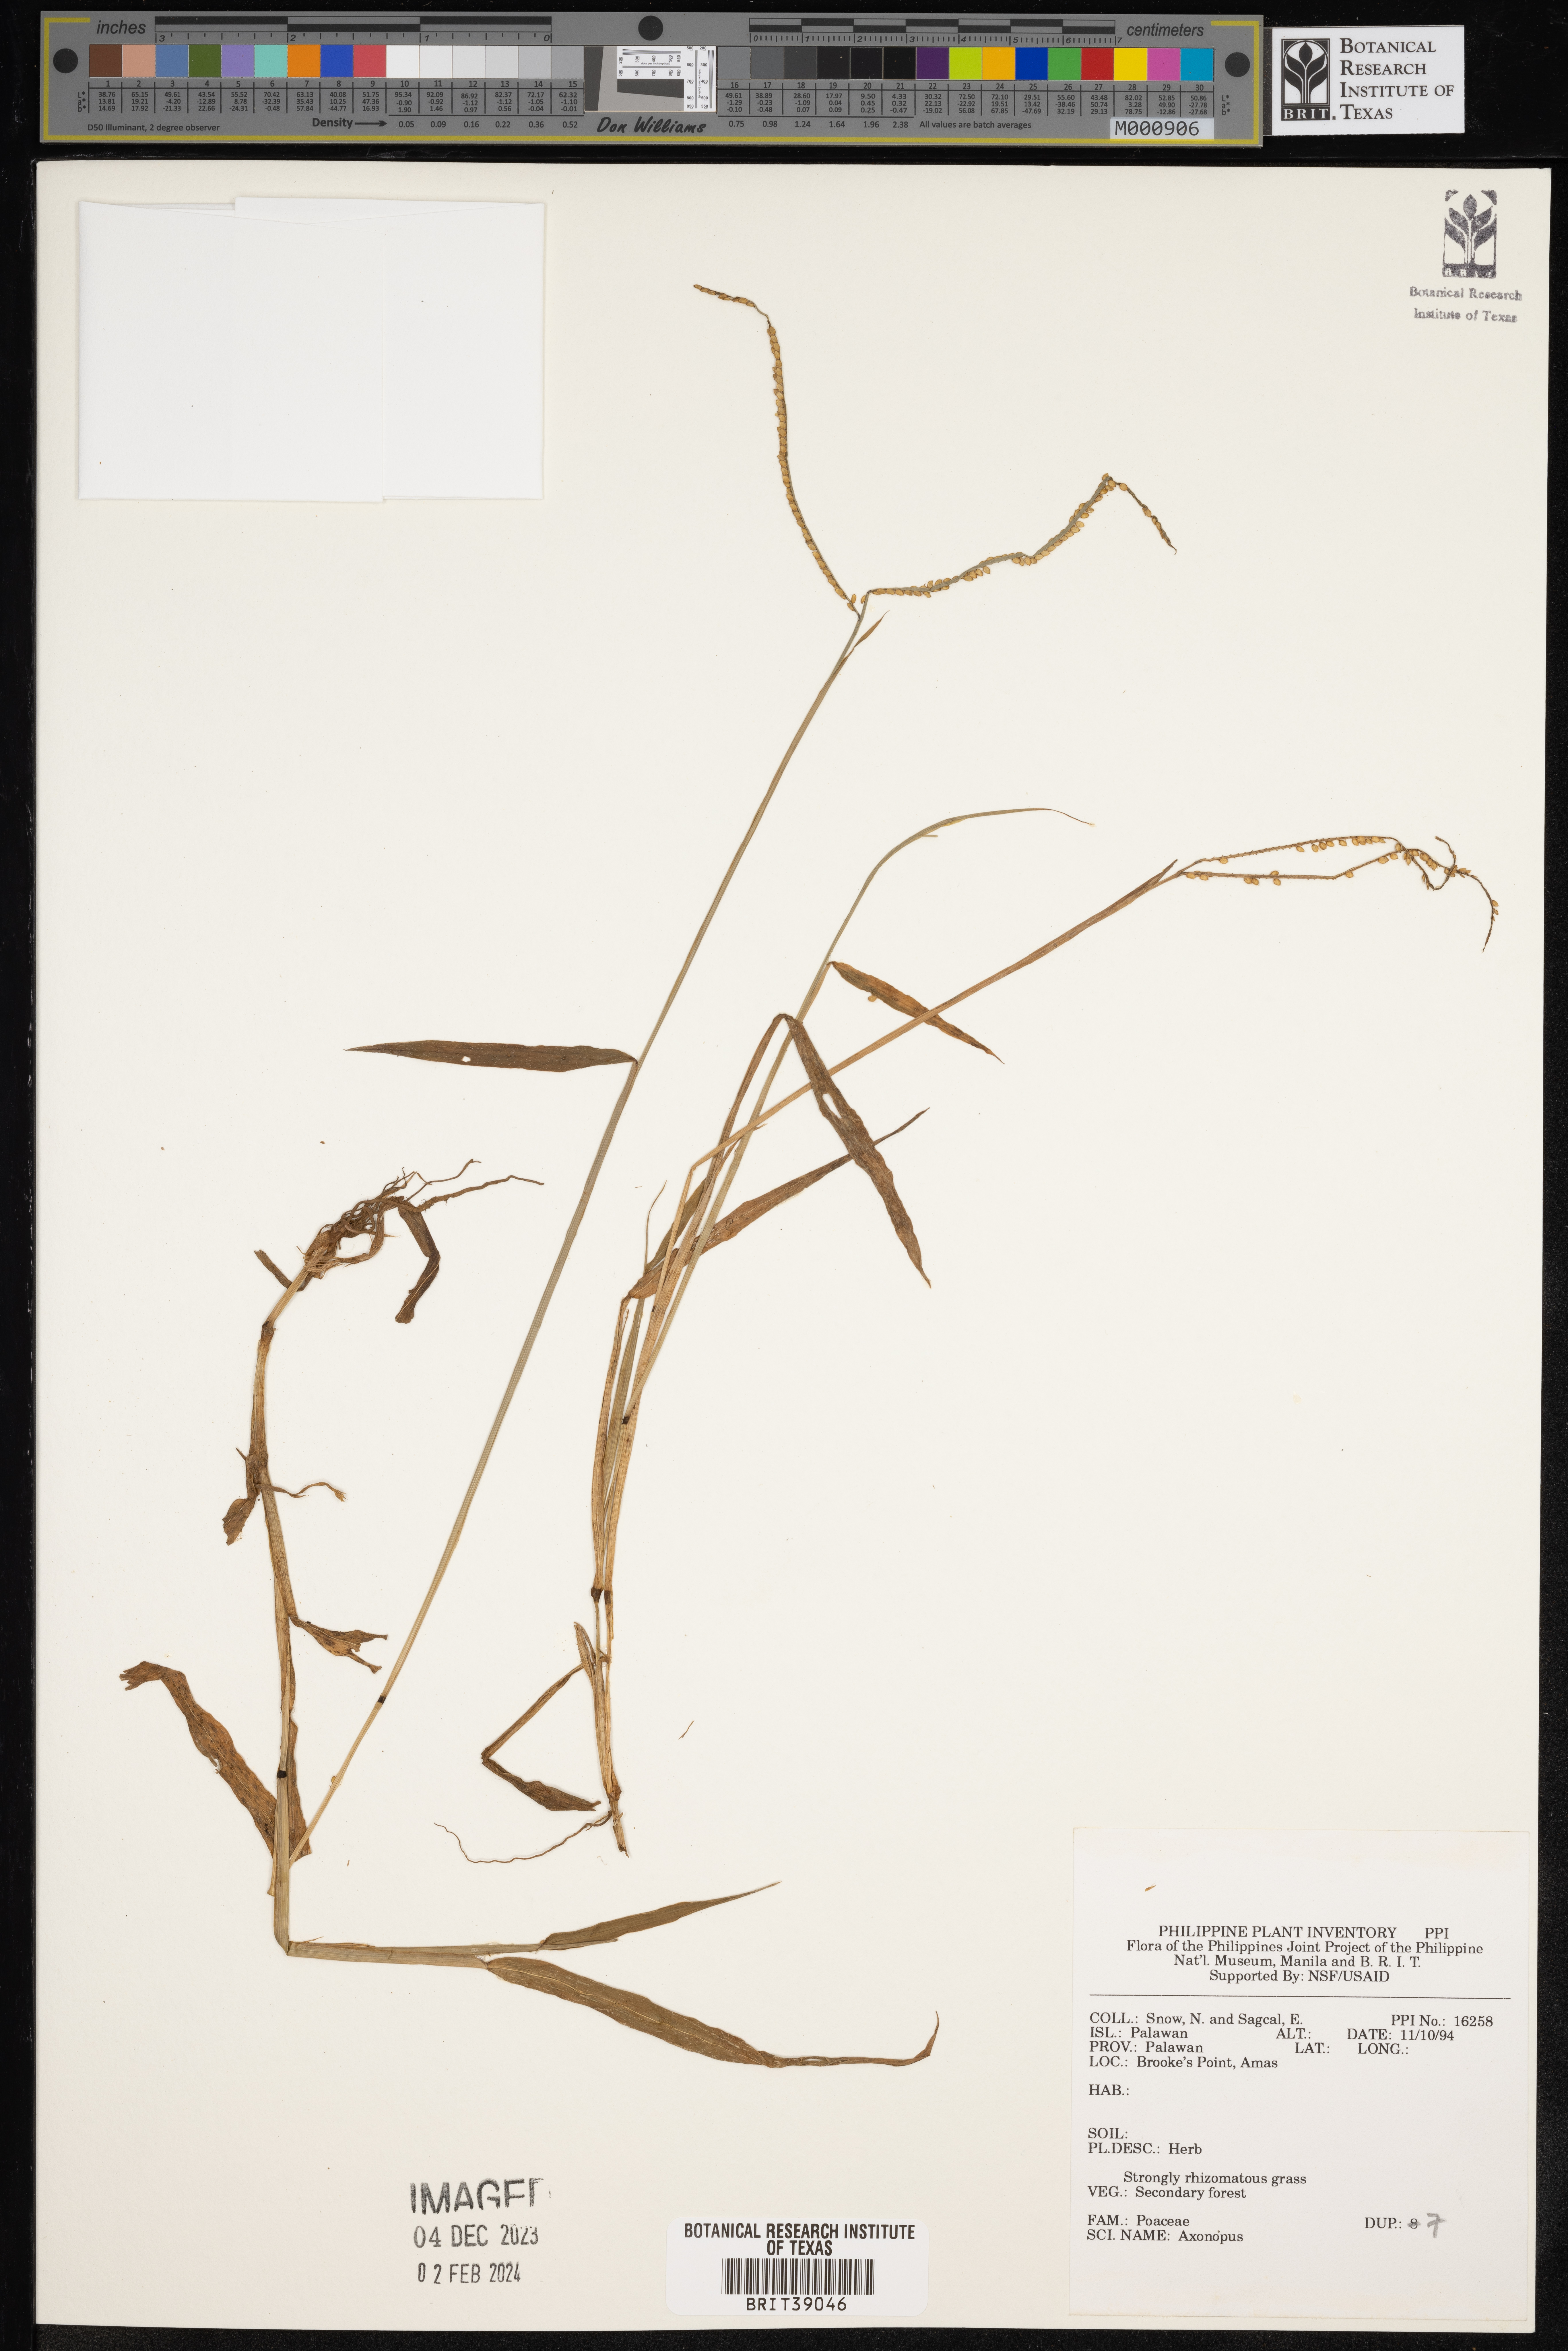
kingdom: Plantae
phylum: Tracheophyta
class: Liliopsida
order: Poales
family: Poaceae
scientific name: Poaceae
